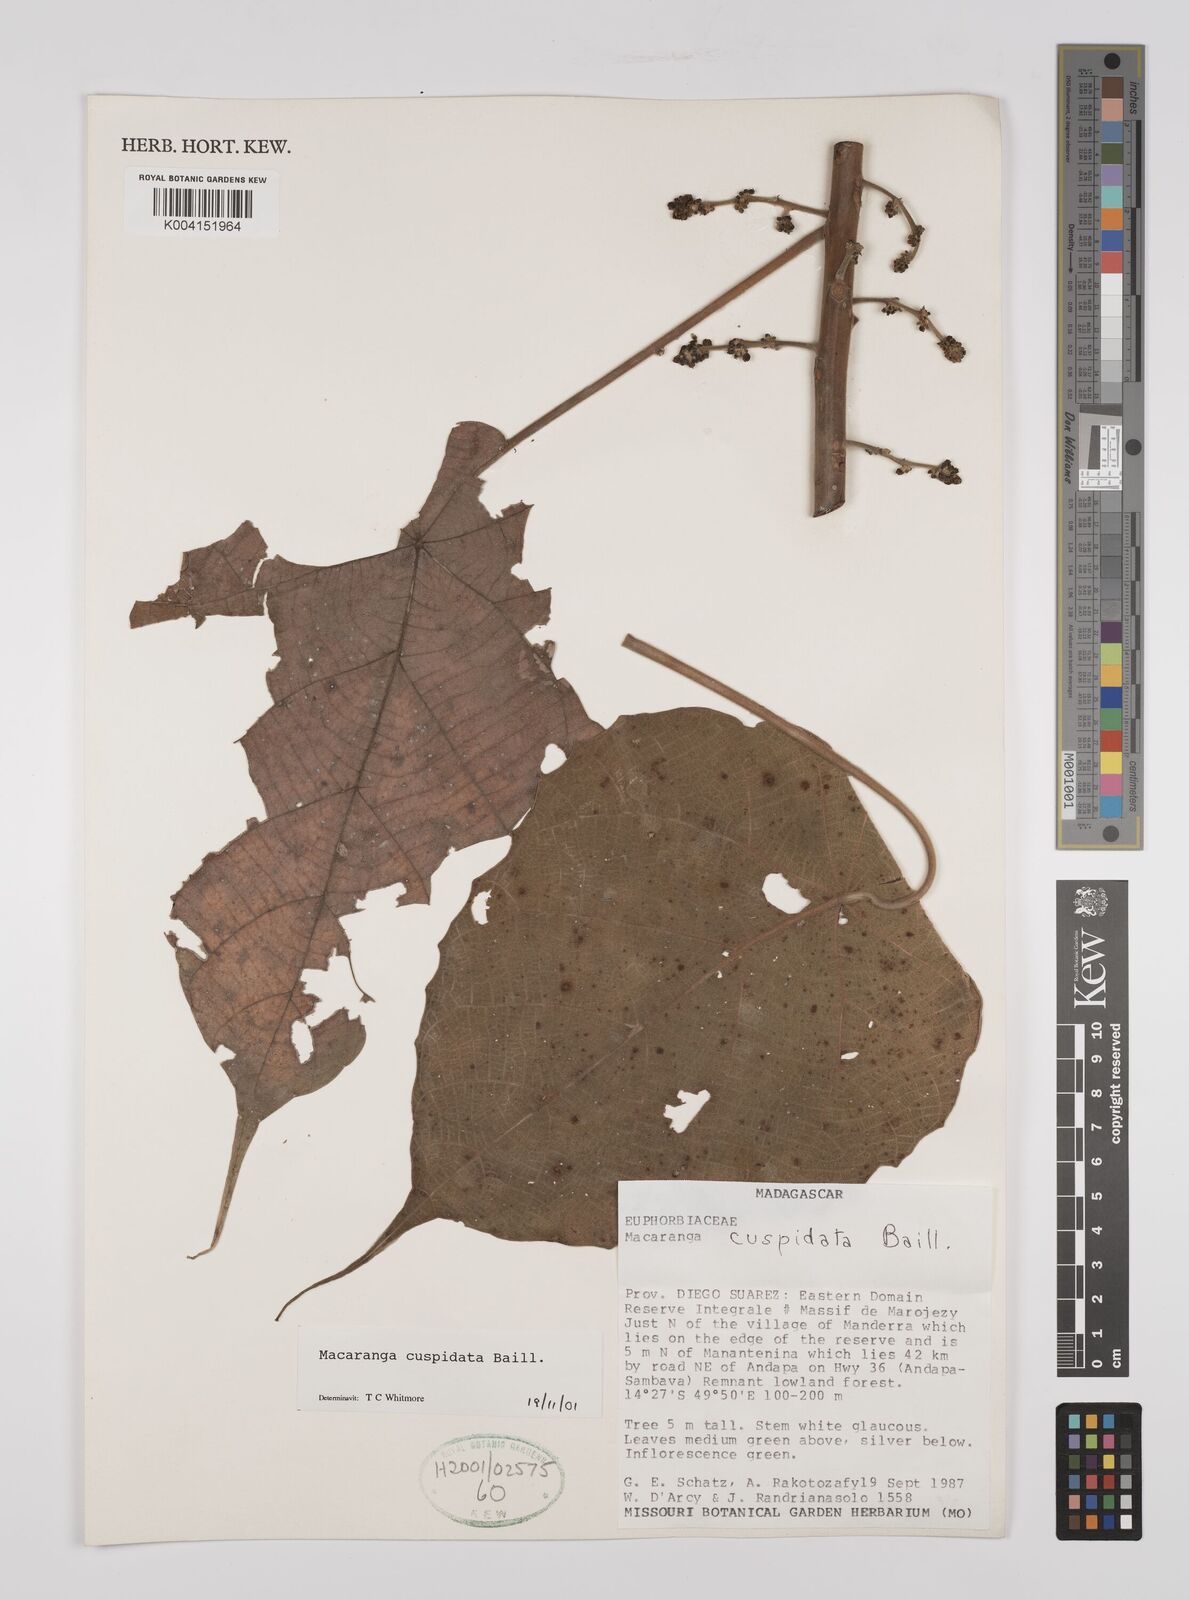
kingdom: Plantae
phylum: Tracheophyta
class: Magnoliopsida
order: Malpighiales
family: Euphorbiaceae
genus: Macaranga
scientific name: Macaranga cuspidata
